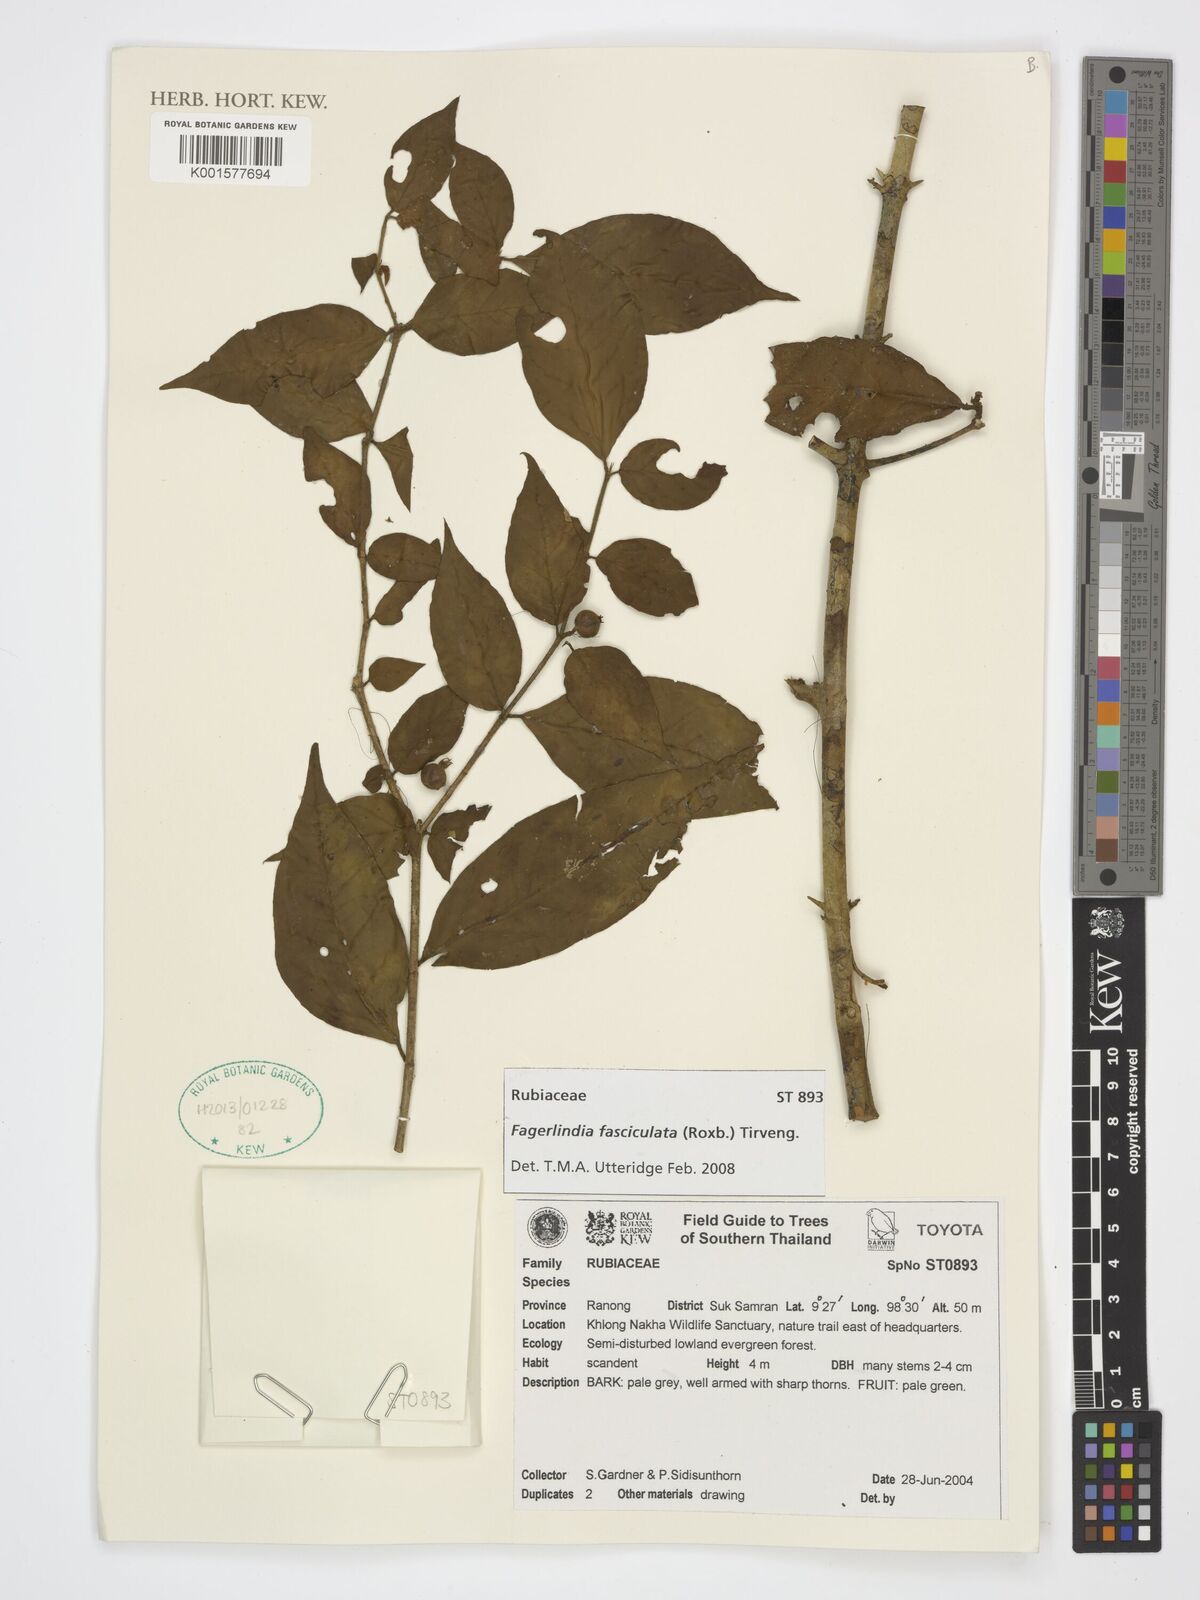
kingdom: Plantae
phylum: Tracheophyta
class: Magnoliopsida
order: Gentianales
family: Rubiaceae
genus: Benkara
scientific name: Benkara fasciculata
